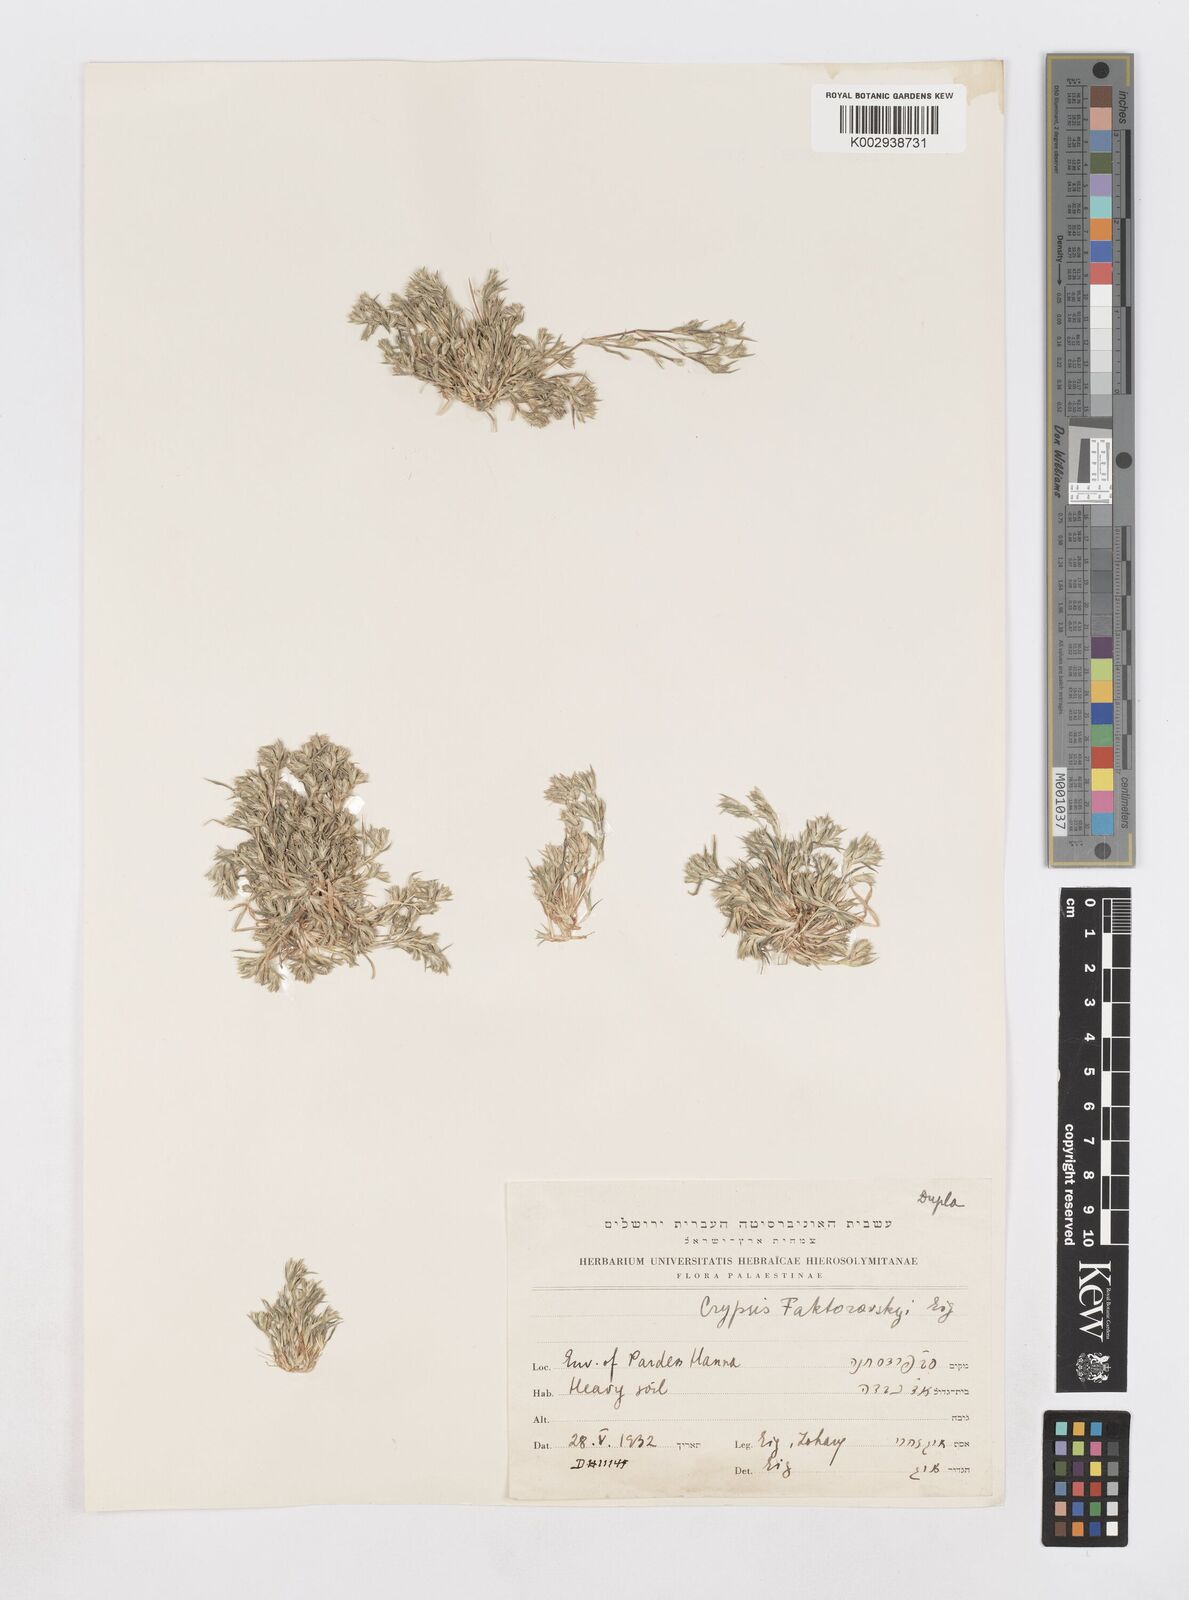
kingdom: Plantae
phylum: Tracheophyta
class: Liliopsida
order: Poales
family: Poaceae
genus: Sporobolus
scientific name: Sporobolus factorovskyi
